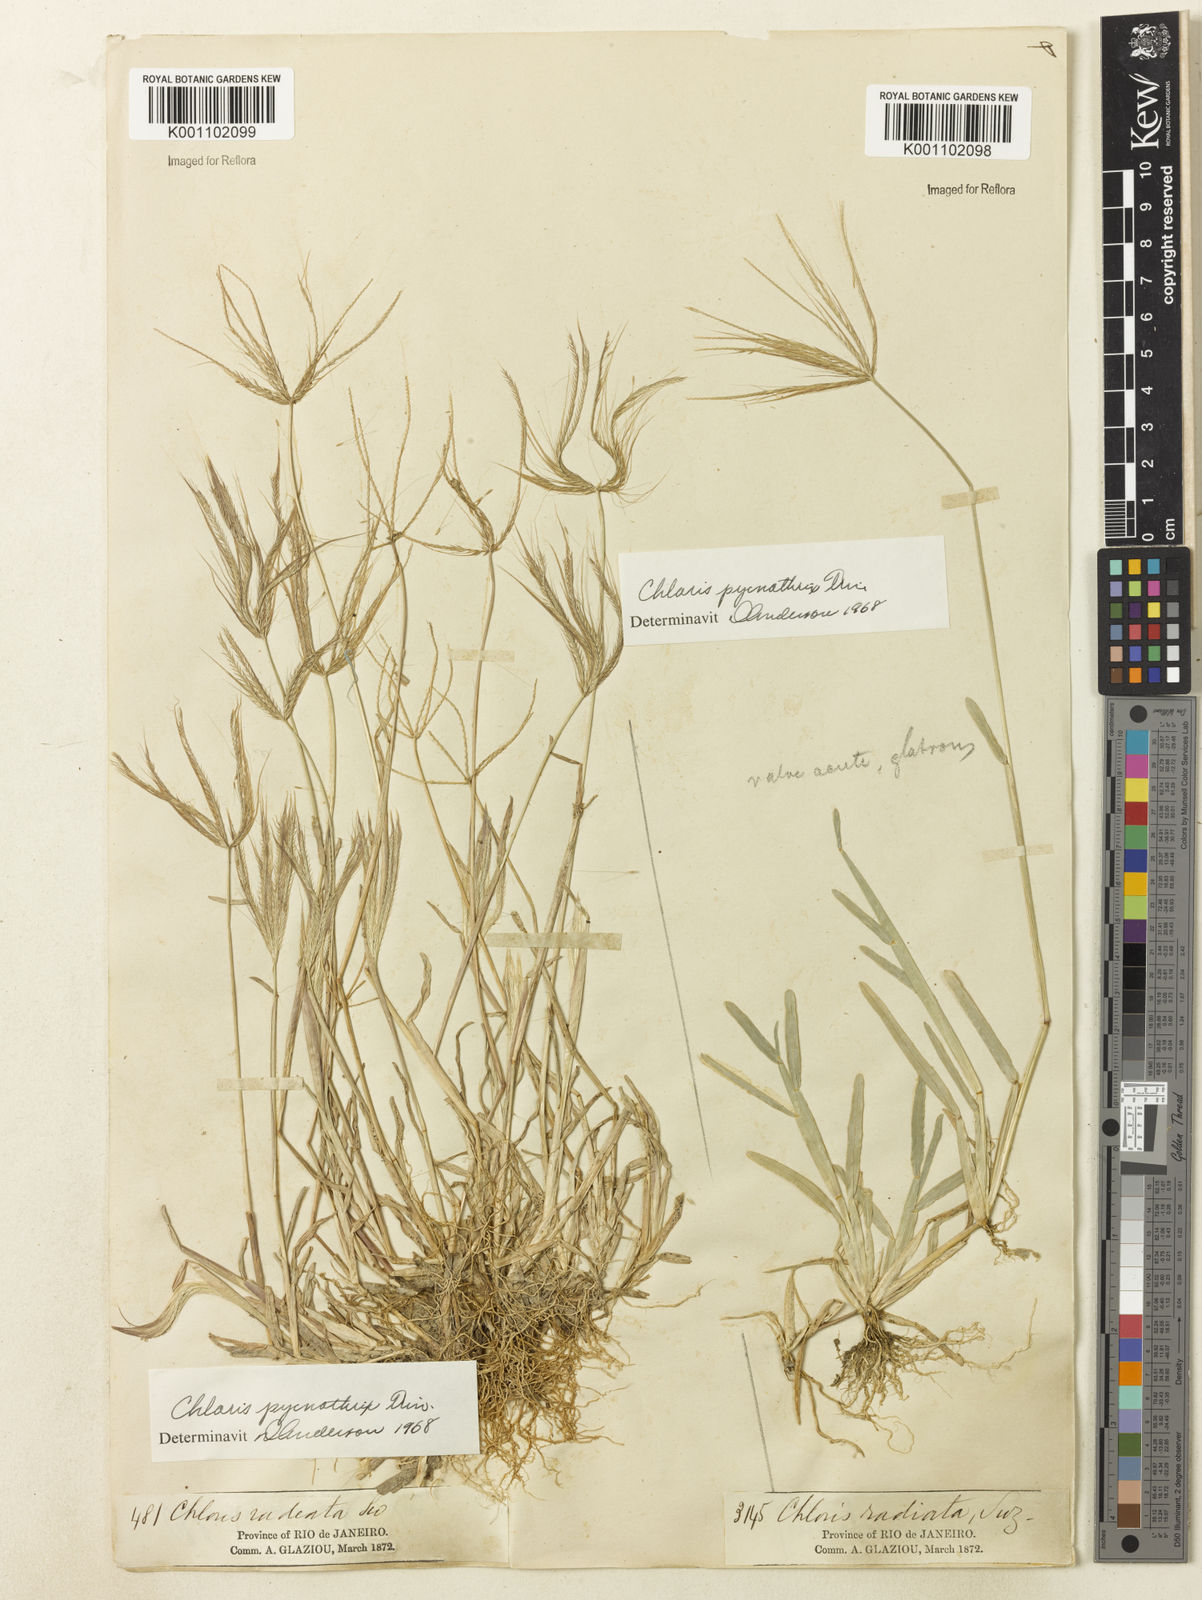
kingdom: Plantae
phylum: Tracheophyta
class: Liliopsida
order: Poales
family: Poaceae
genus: Chloris
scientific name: Chloris pycnothrix
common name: Spiderweb chloris
